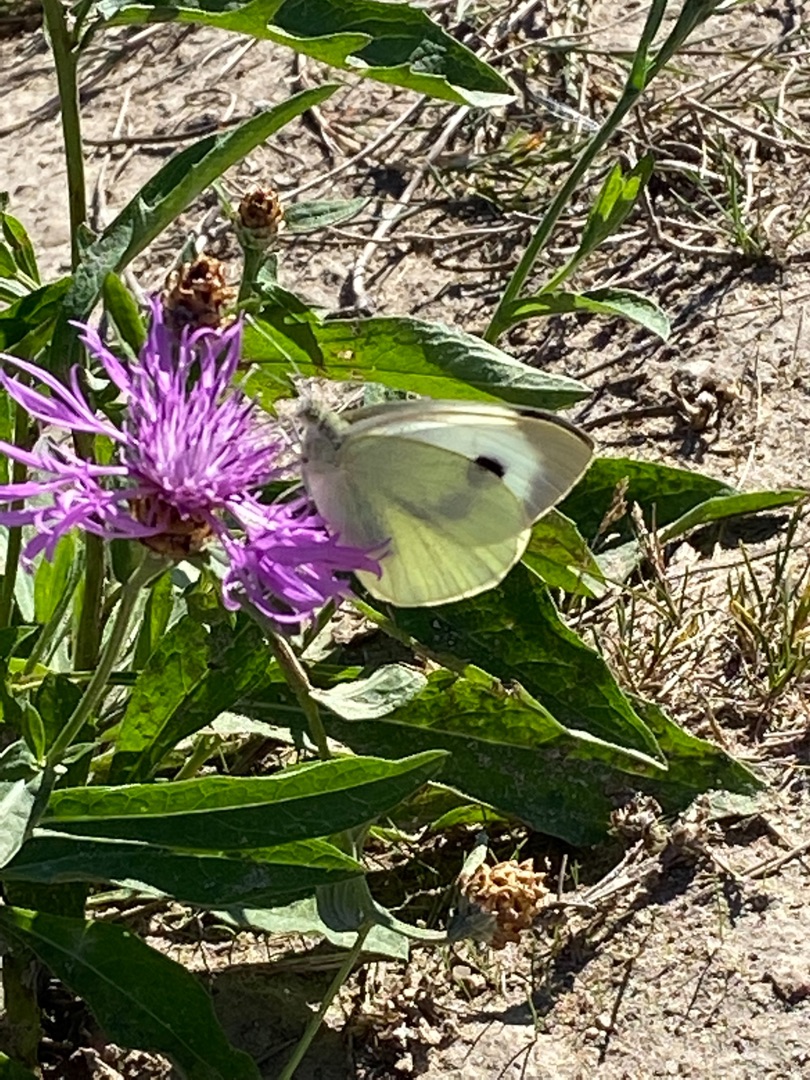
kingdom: Animalia
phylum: Arthropoda
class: Insecta
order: Lepidoptera
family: Pieridae
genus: Pieris
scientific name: Pieris brassicae
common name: Stor kålsommerfugl
